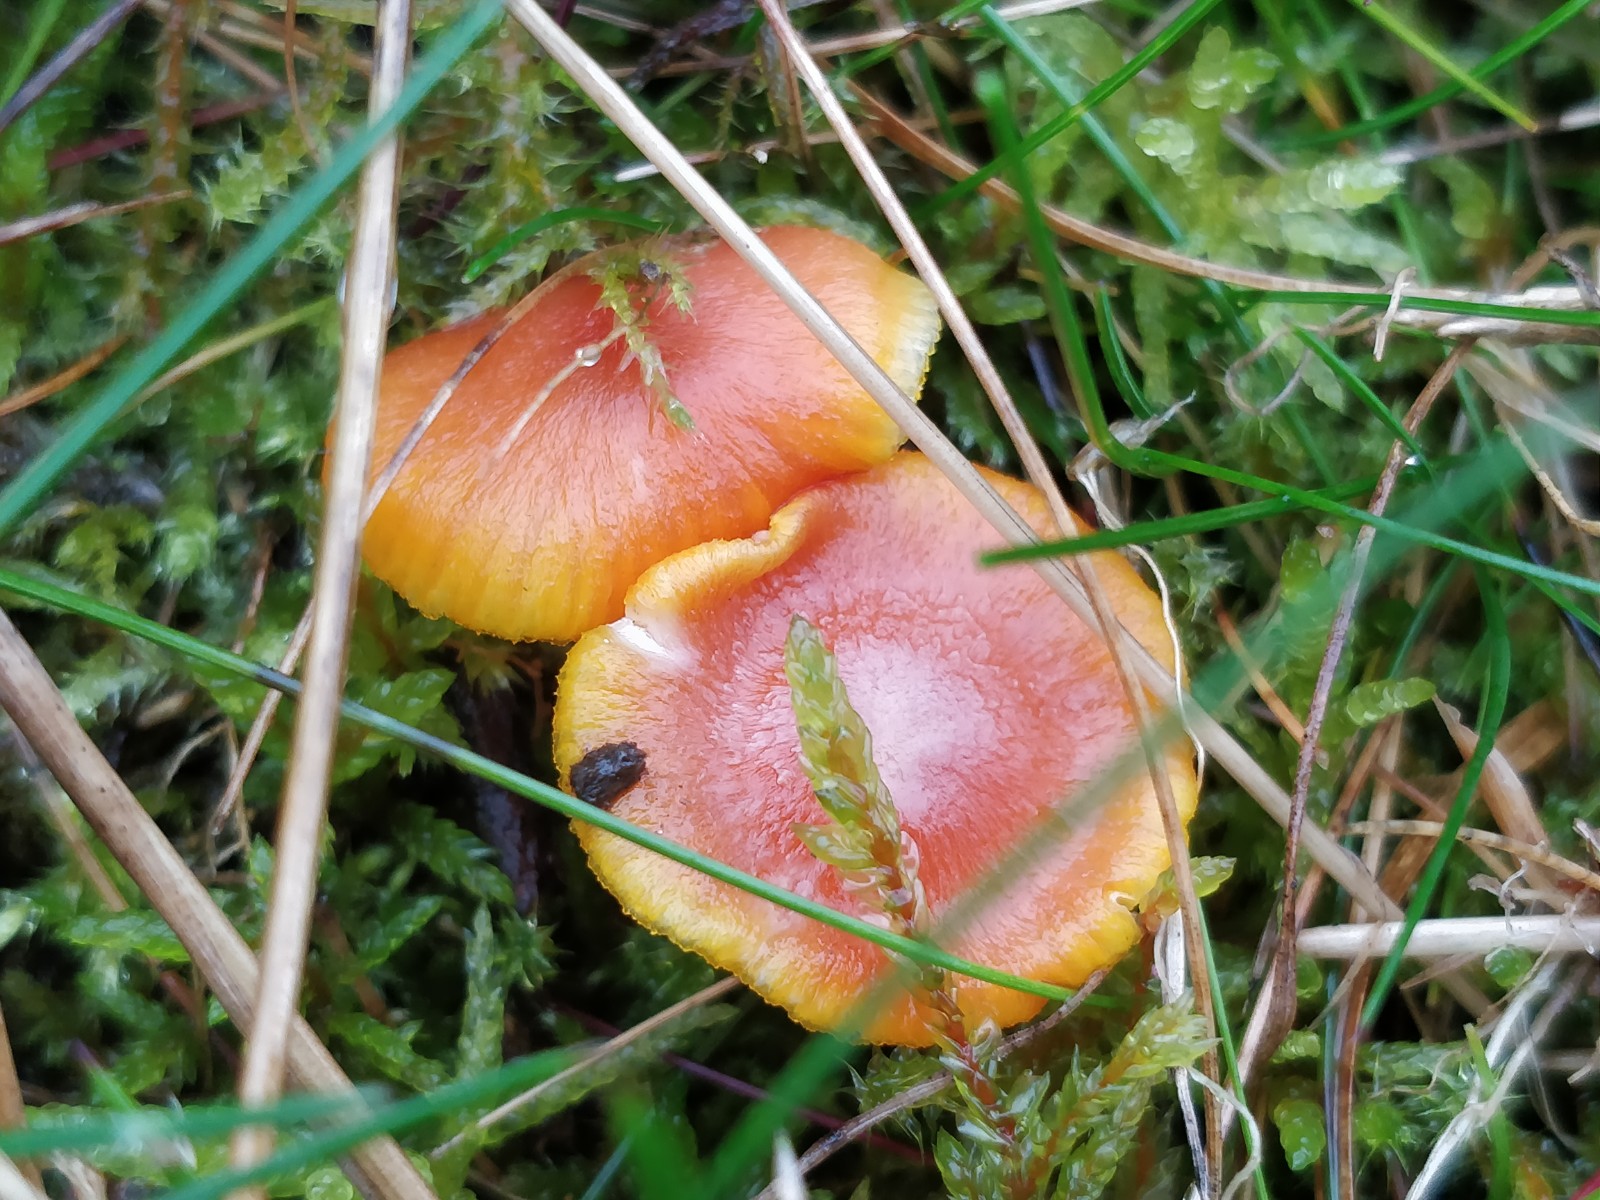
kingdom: Fungi
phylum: Basidiomycota
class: Agaricomycetes
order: Agaricales
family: Hygrophoraceae
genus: Hygrocybe
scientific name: Hygrocybe miniata
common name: mønje-vokshat
